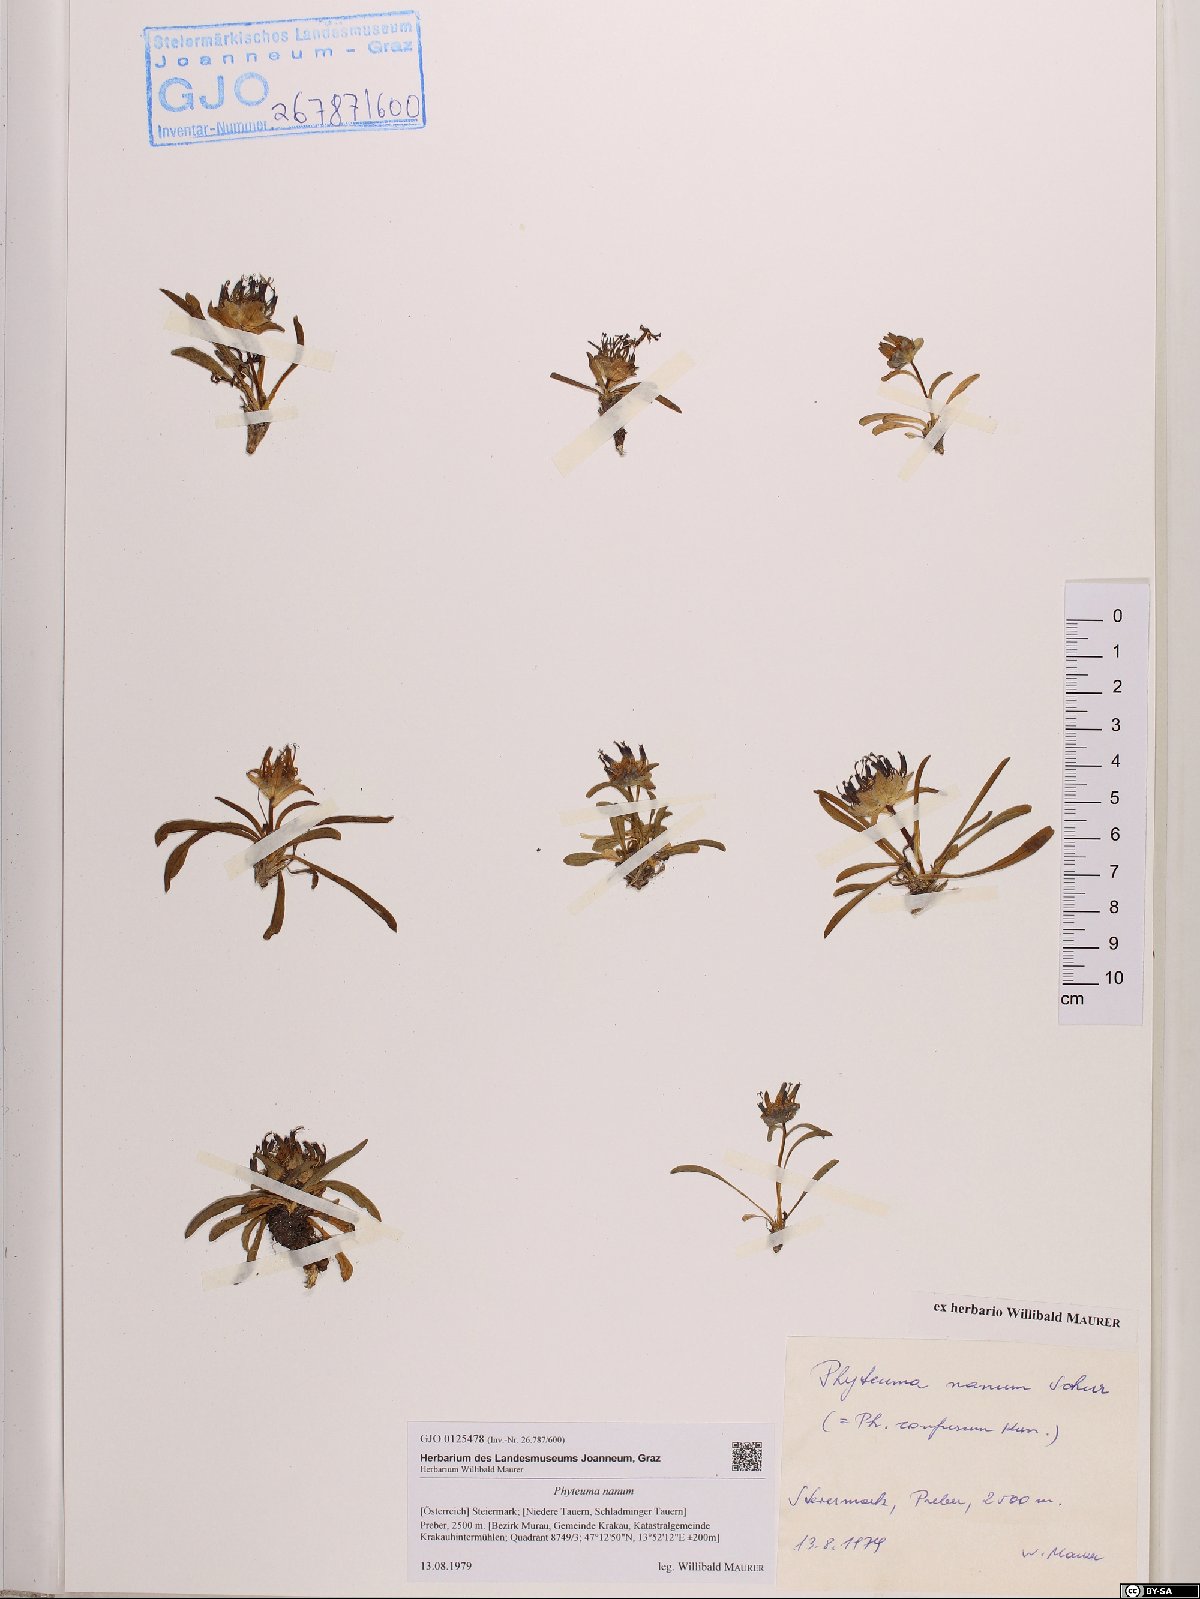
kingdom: Plantae
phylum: Tracheophyta
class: Magnoliopsida
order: Asterales
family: Campanulaceae
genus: Phyteuma
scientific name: Phyteuma globulariifolium
